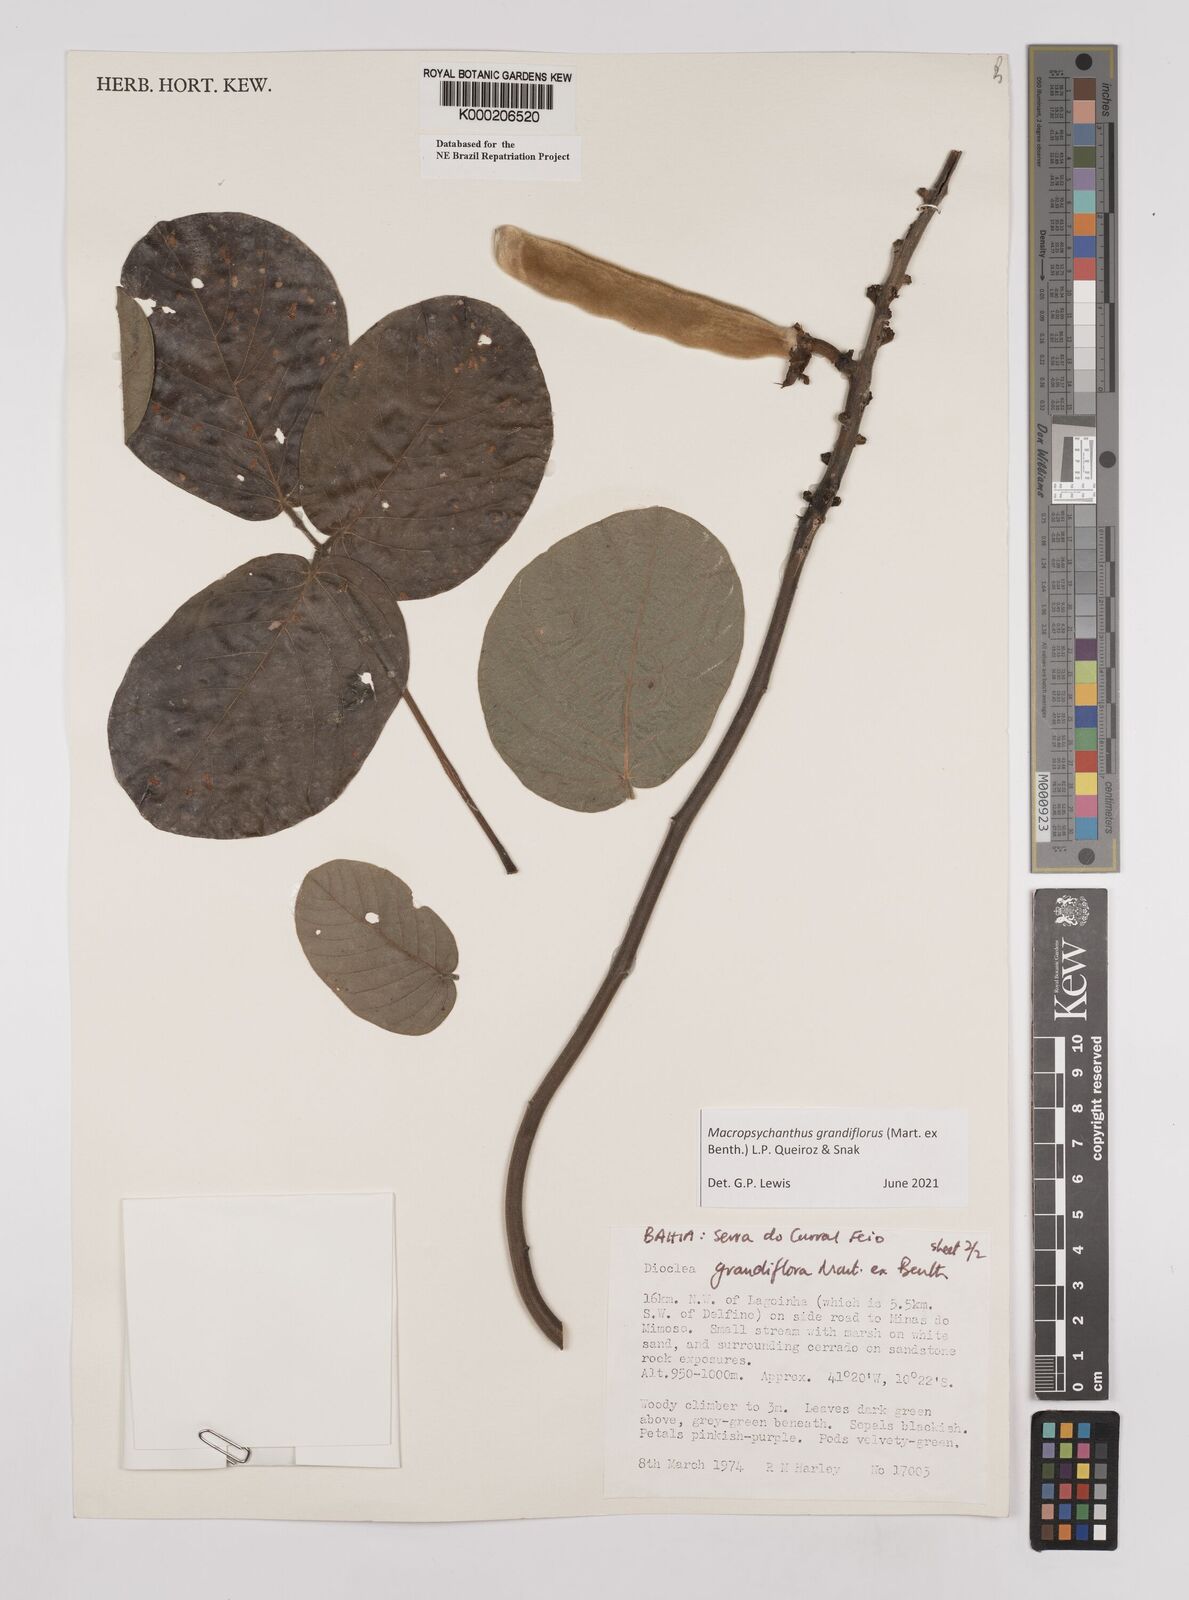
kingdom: Plantae
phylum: Tracheophyta
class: Magnoliopsida
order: Fabales
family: Fabaceae
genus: Macropsychanthus
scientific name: Macropsychanthus grandiflorus
